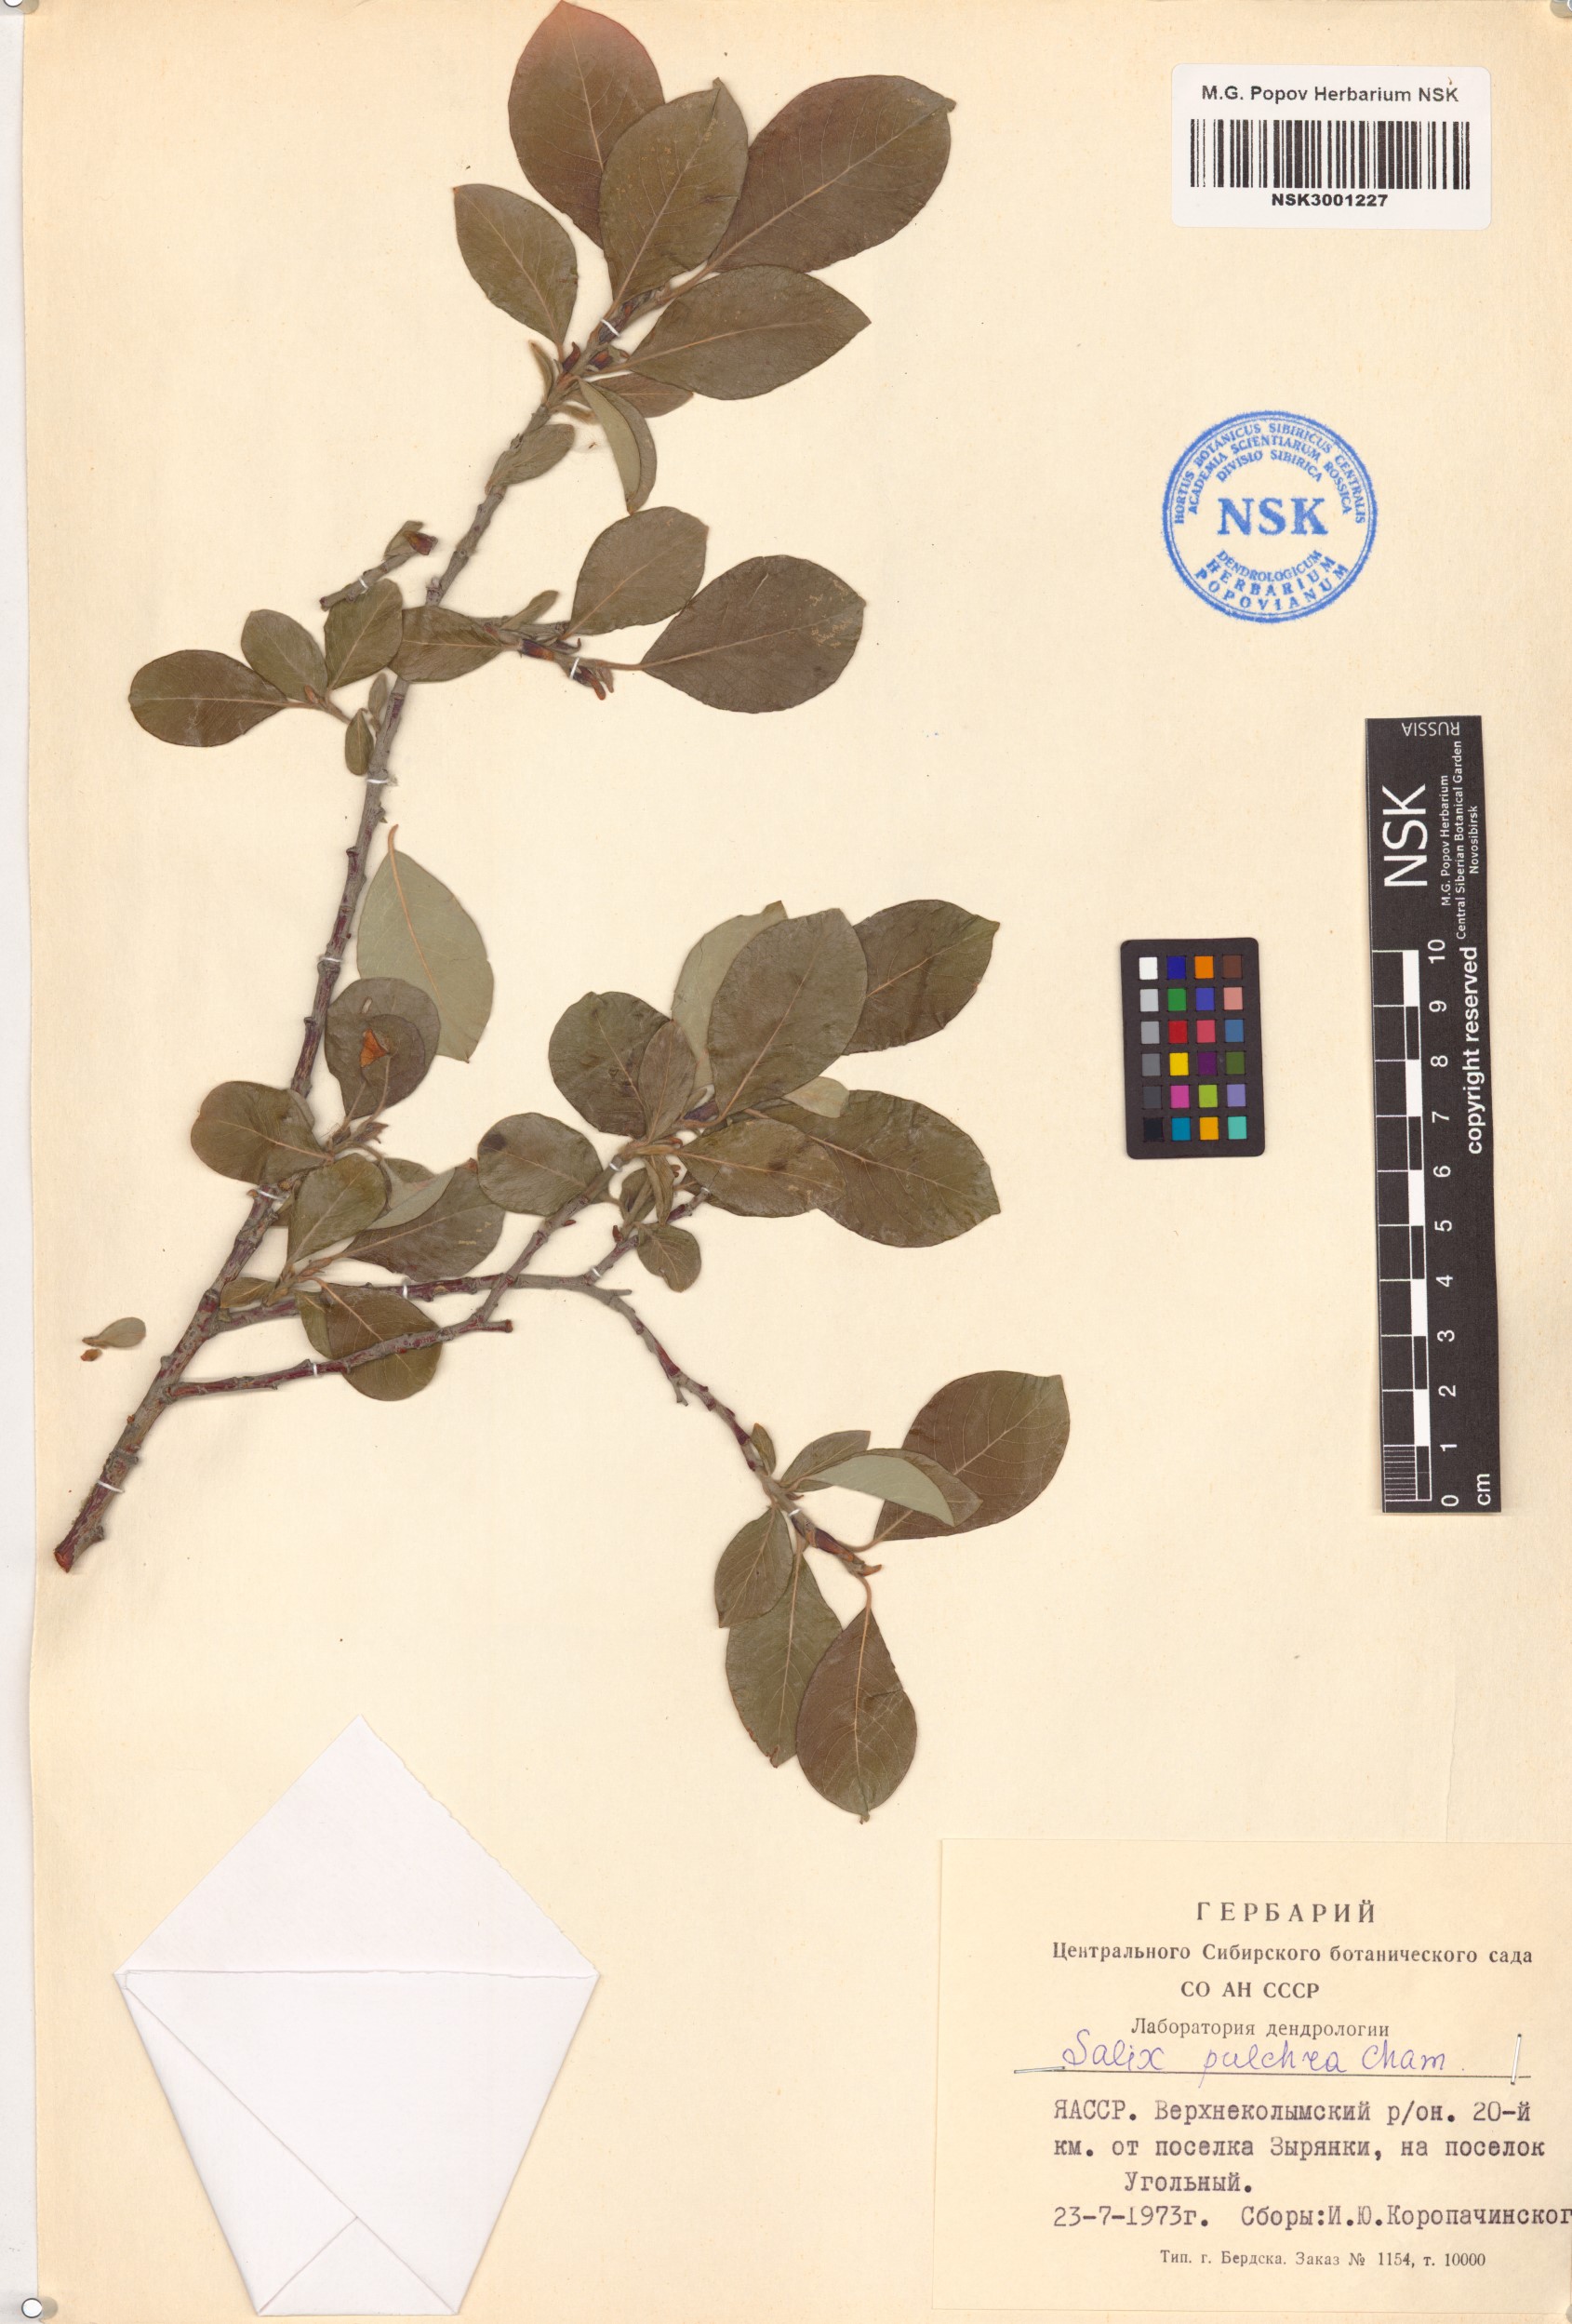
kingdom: Plantae
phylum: Tracheophyta
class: Magnoliopsida
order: Malpighiales
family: Salicaceae
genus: Salix
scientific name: Salix pulchra
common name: Diamond-leaved willow
